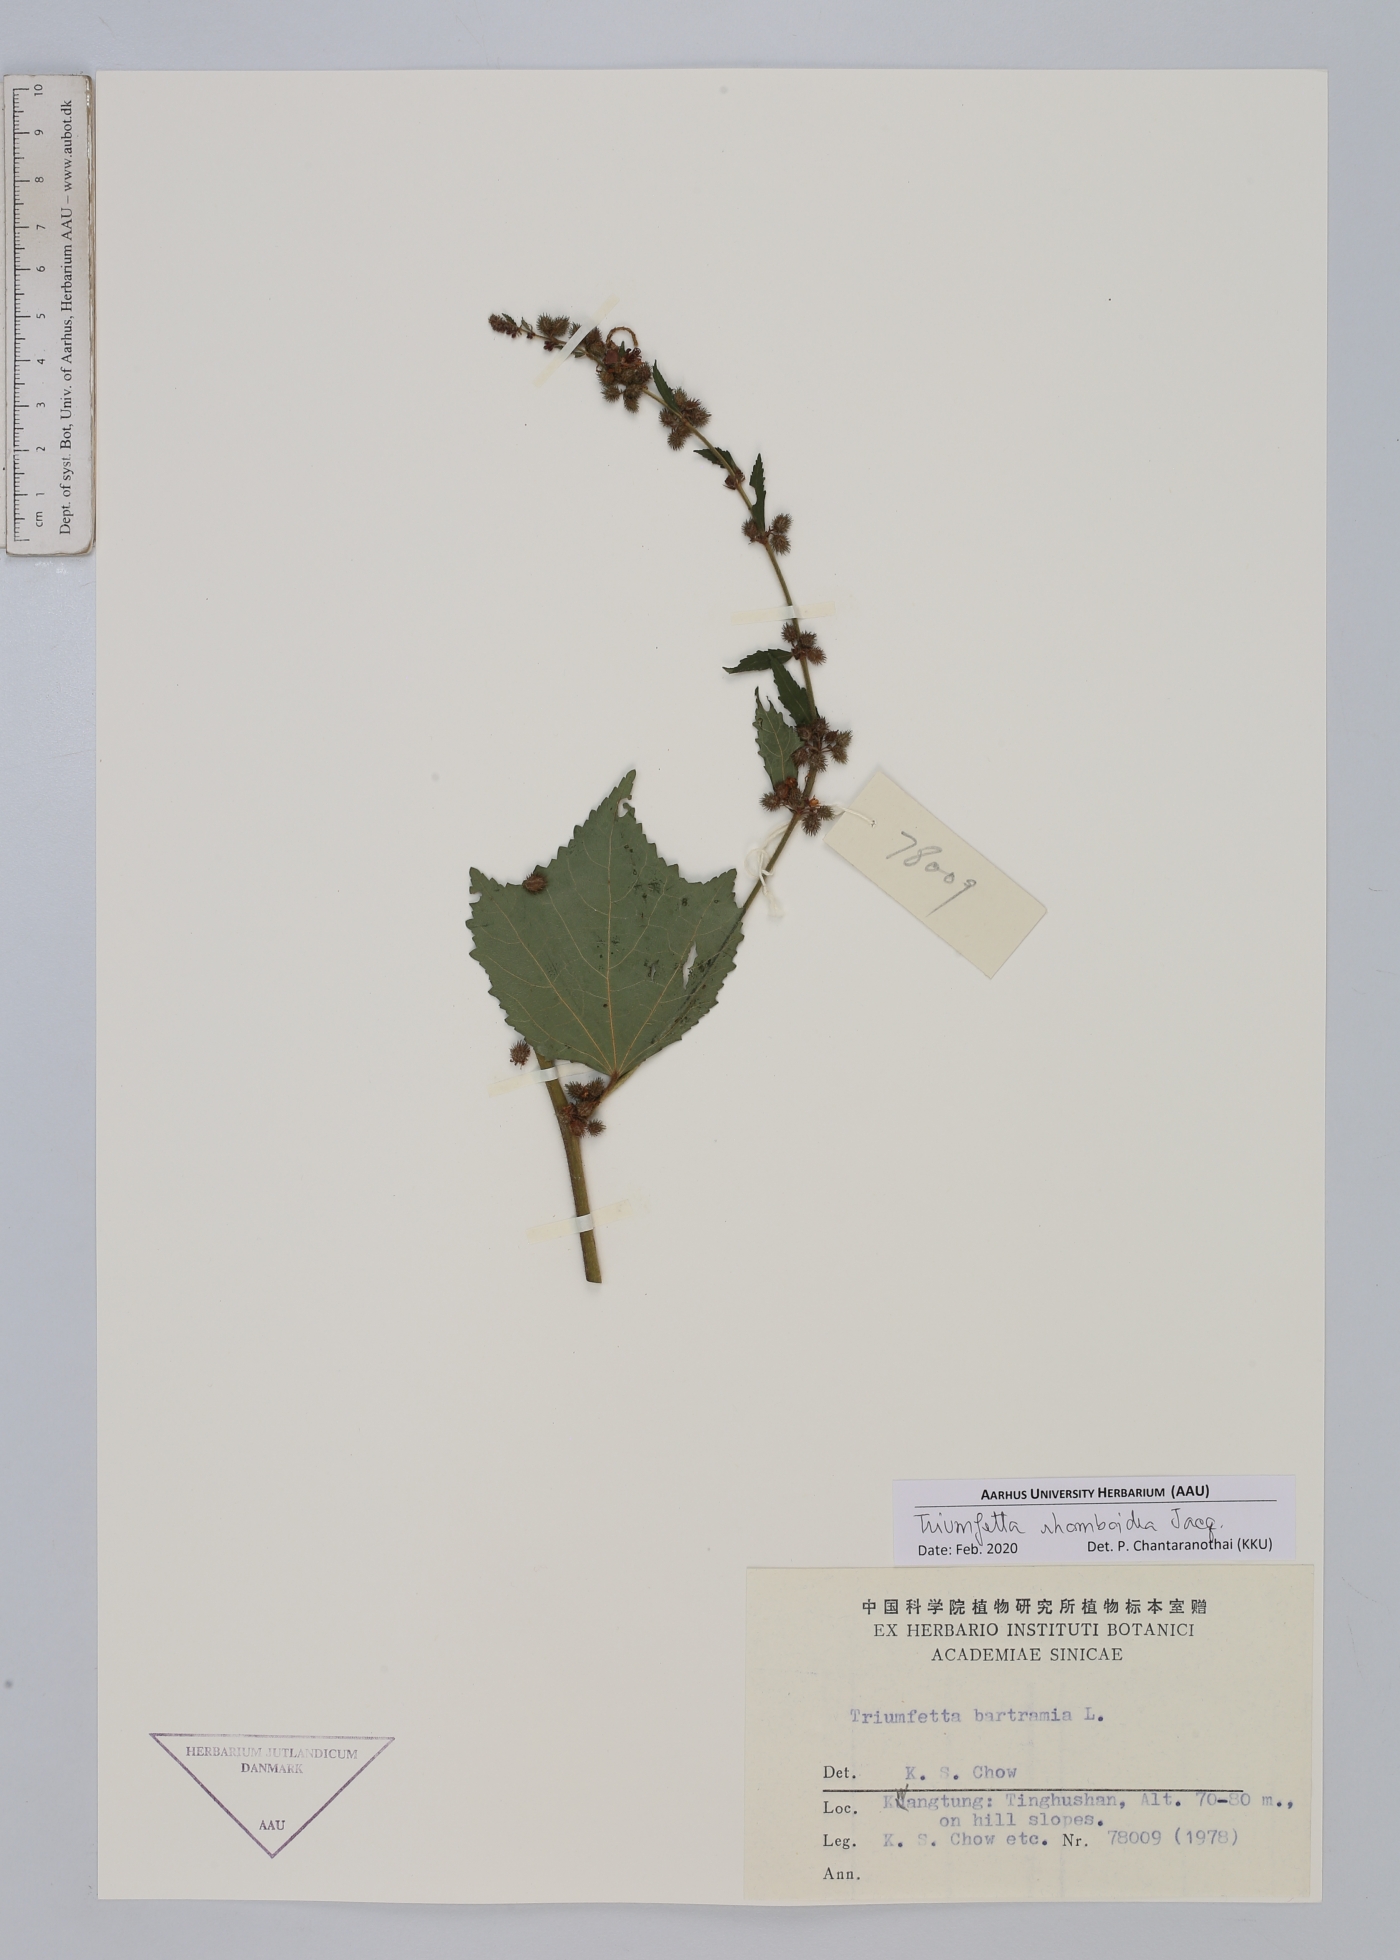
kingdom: Plantae
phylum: Tracheophyta
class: Magnoliopsida
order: Malvales
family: Malvaceae
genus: Triumfetta
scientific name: Triumfetta rhomboidea
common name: Diamond burbark
